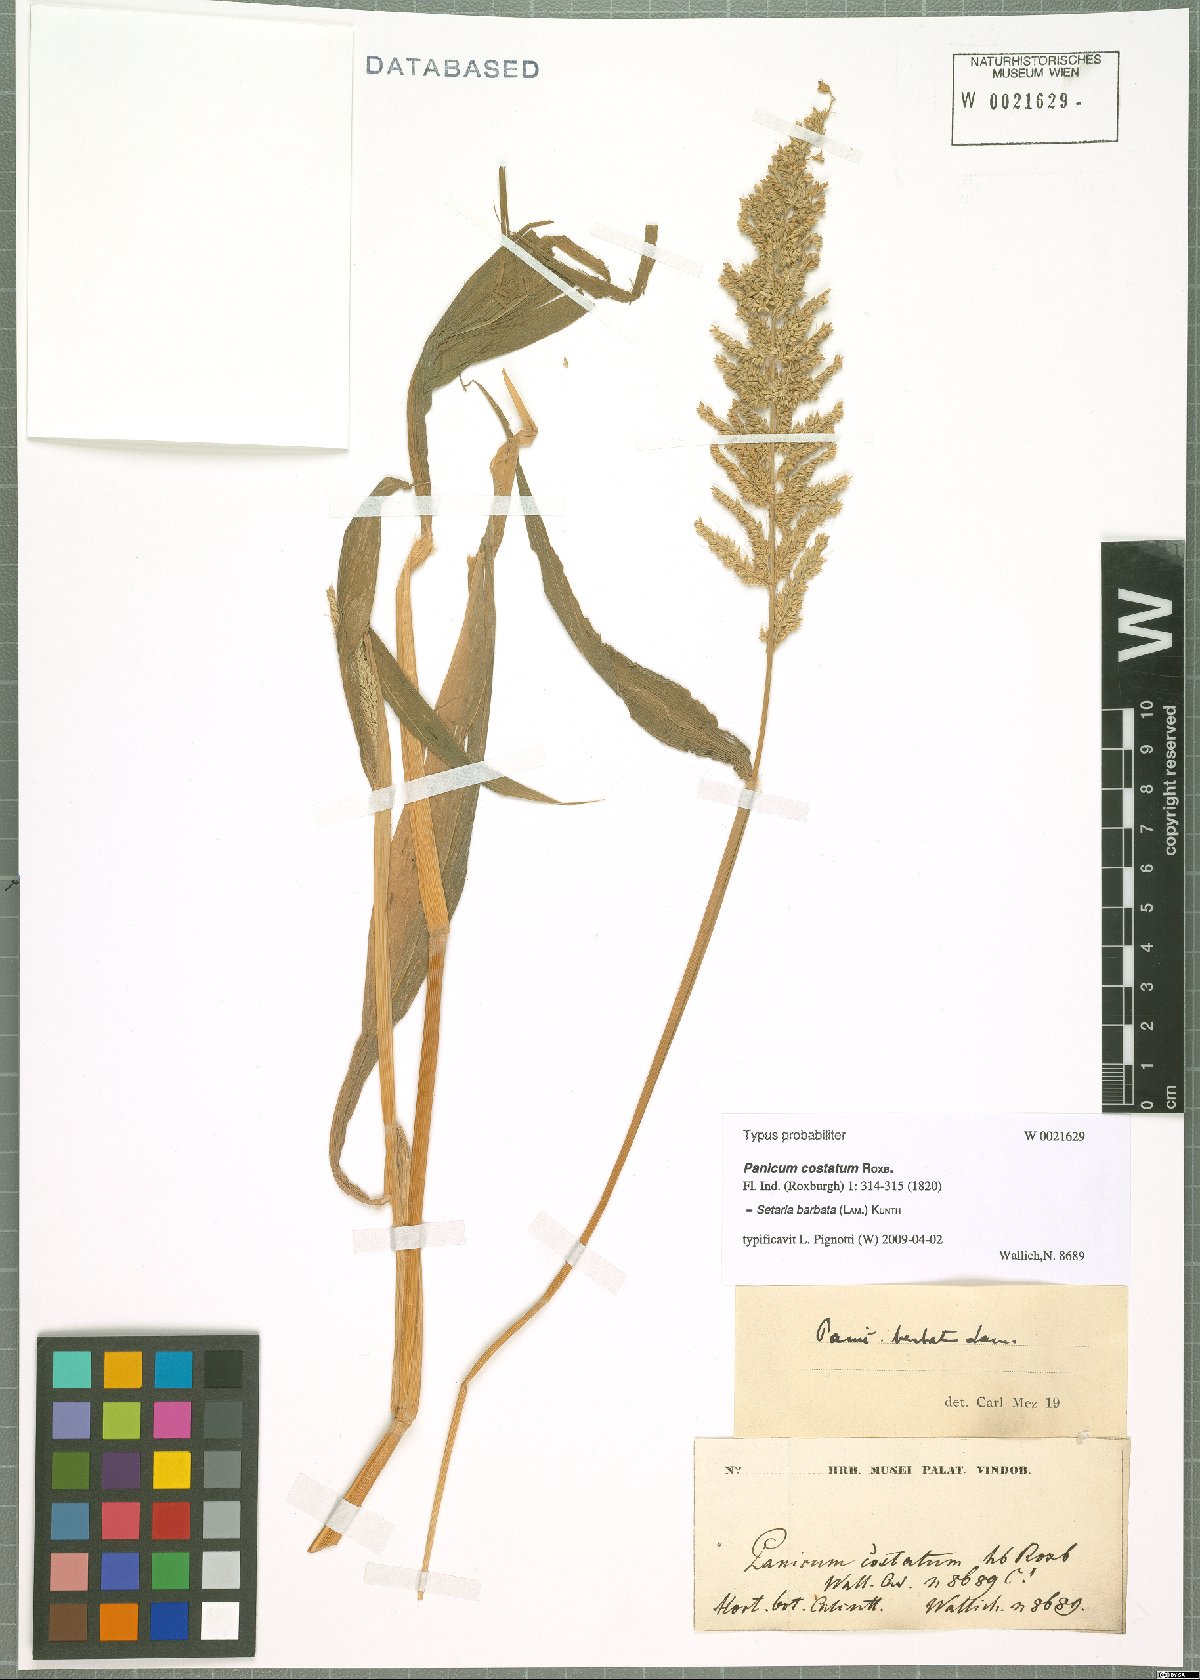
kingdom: Plantae
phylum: Tracheophyta
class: Liliopsida
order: Poales
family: Poaceae
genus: Setaria
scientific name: Setaria barbata
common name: East indian bristlegrass
